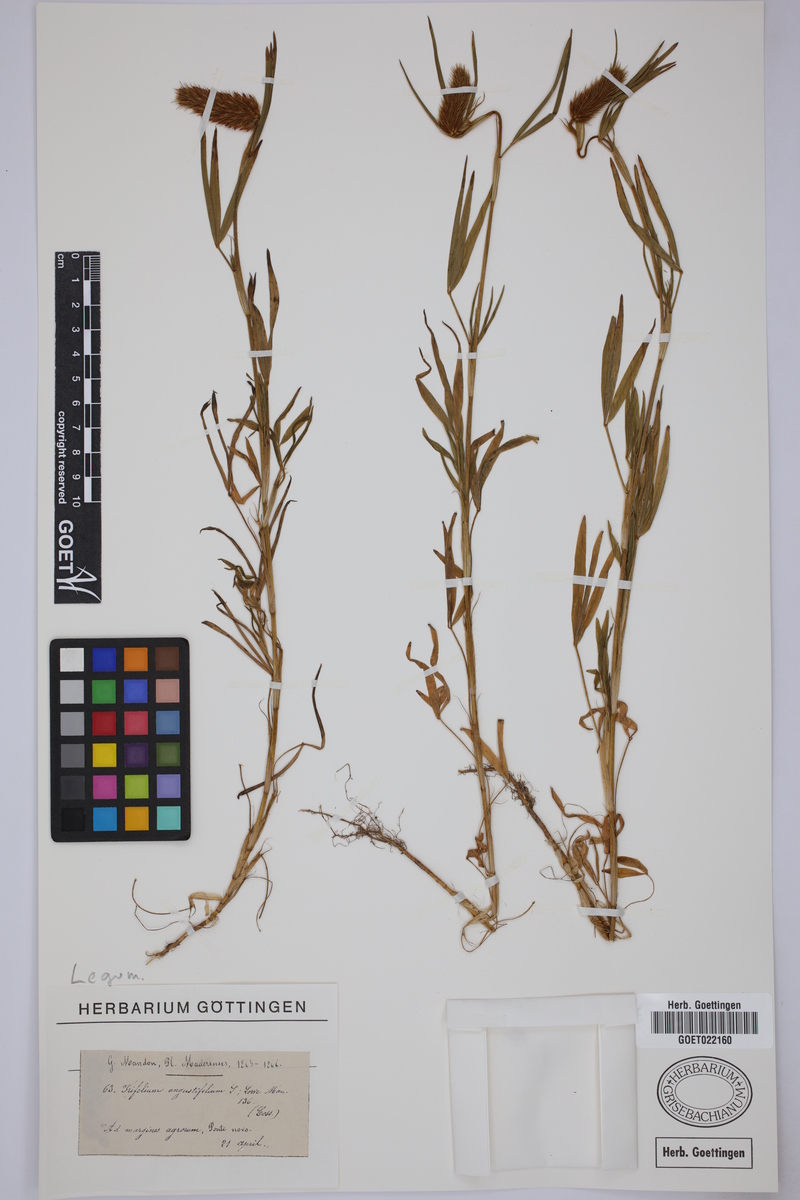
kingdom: Plantae
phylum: Tracheophyta
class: Magnoliopsida
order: Fabales
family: Fabaceae
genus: Trifolium
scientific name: Trifolium angustifolium
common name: Narrow clover
